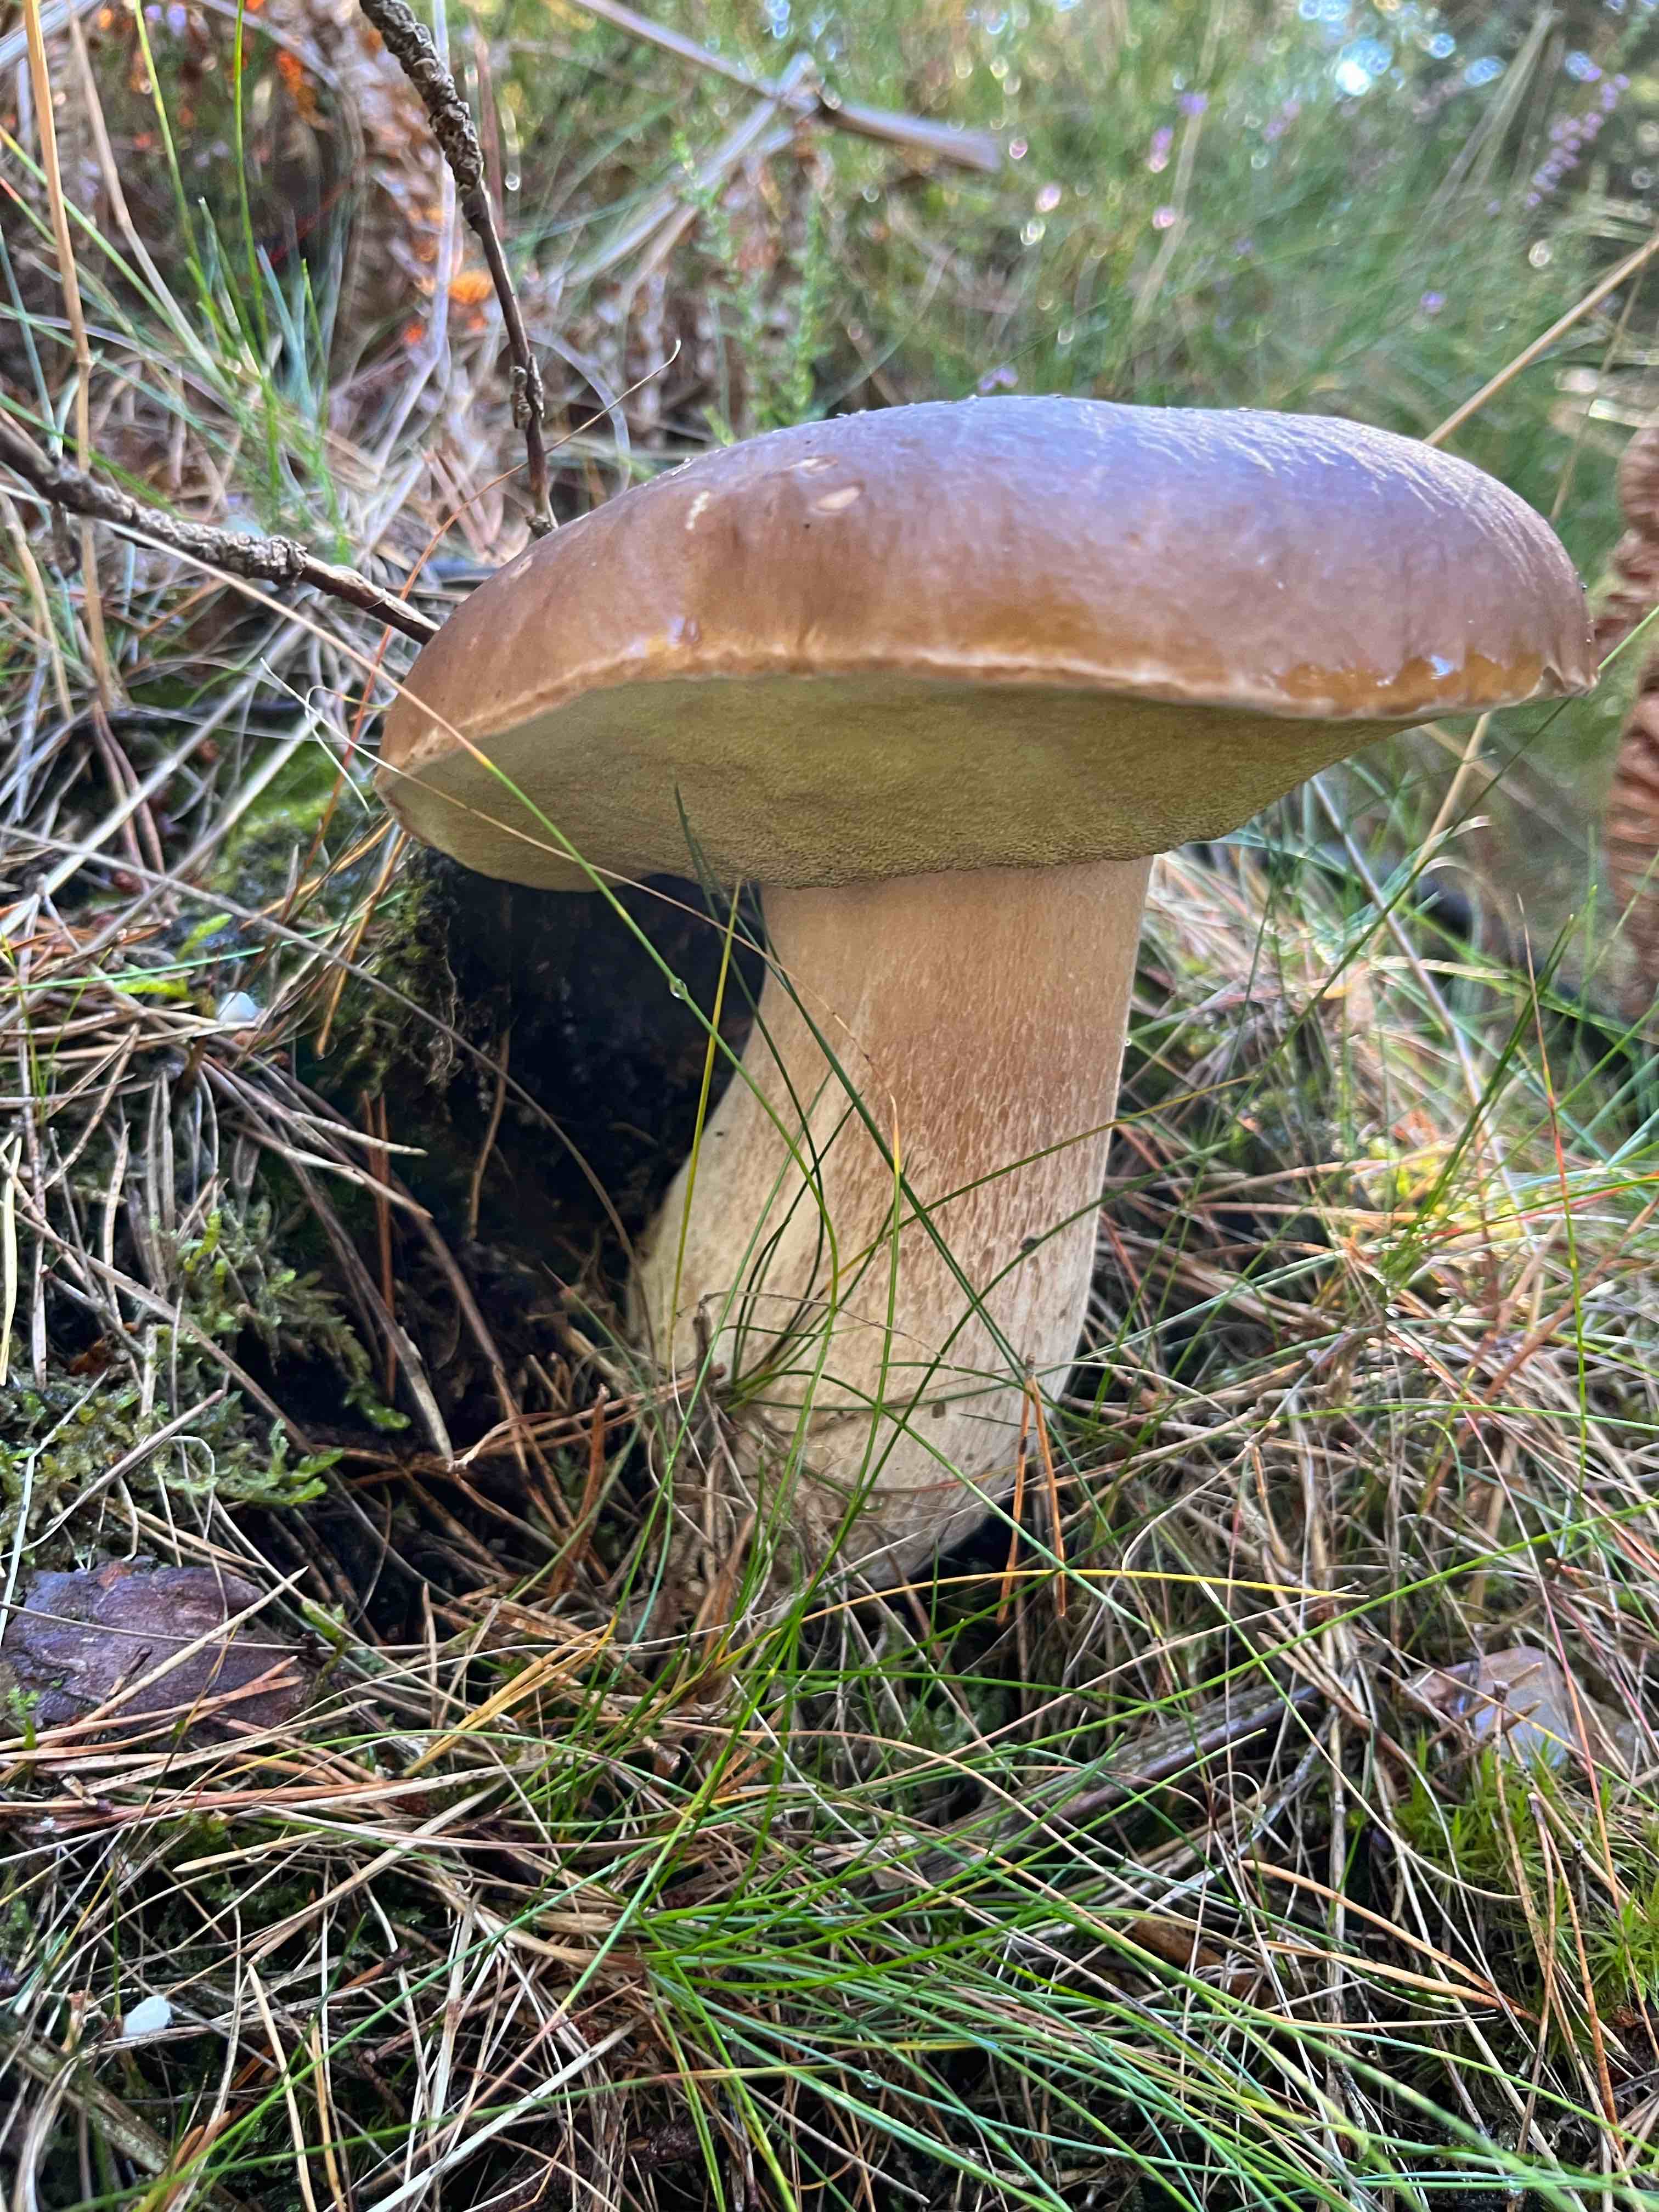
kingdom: Fungi
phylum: Basidiomycota
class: Agaricomycetes
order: Boletales
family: Boletaceae
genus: Boletus
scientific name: Boletus edulis
